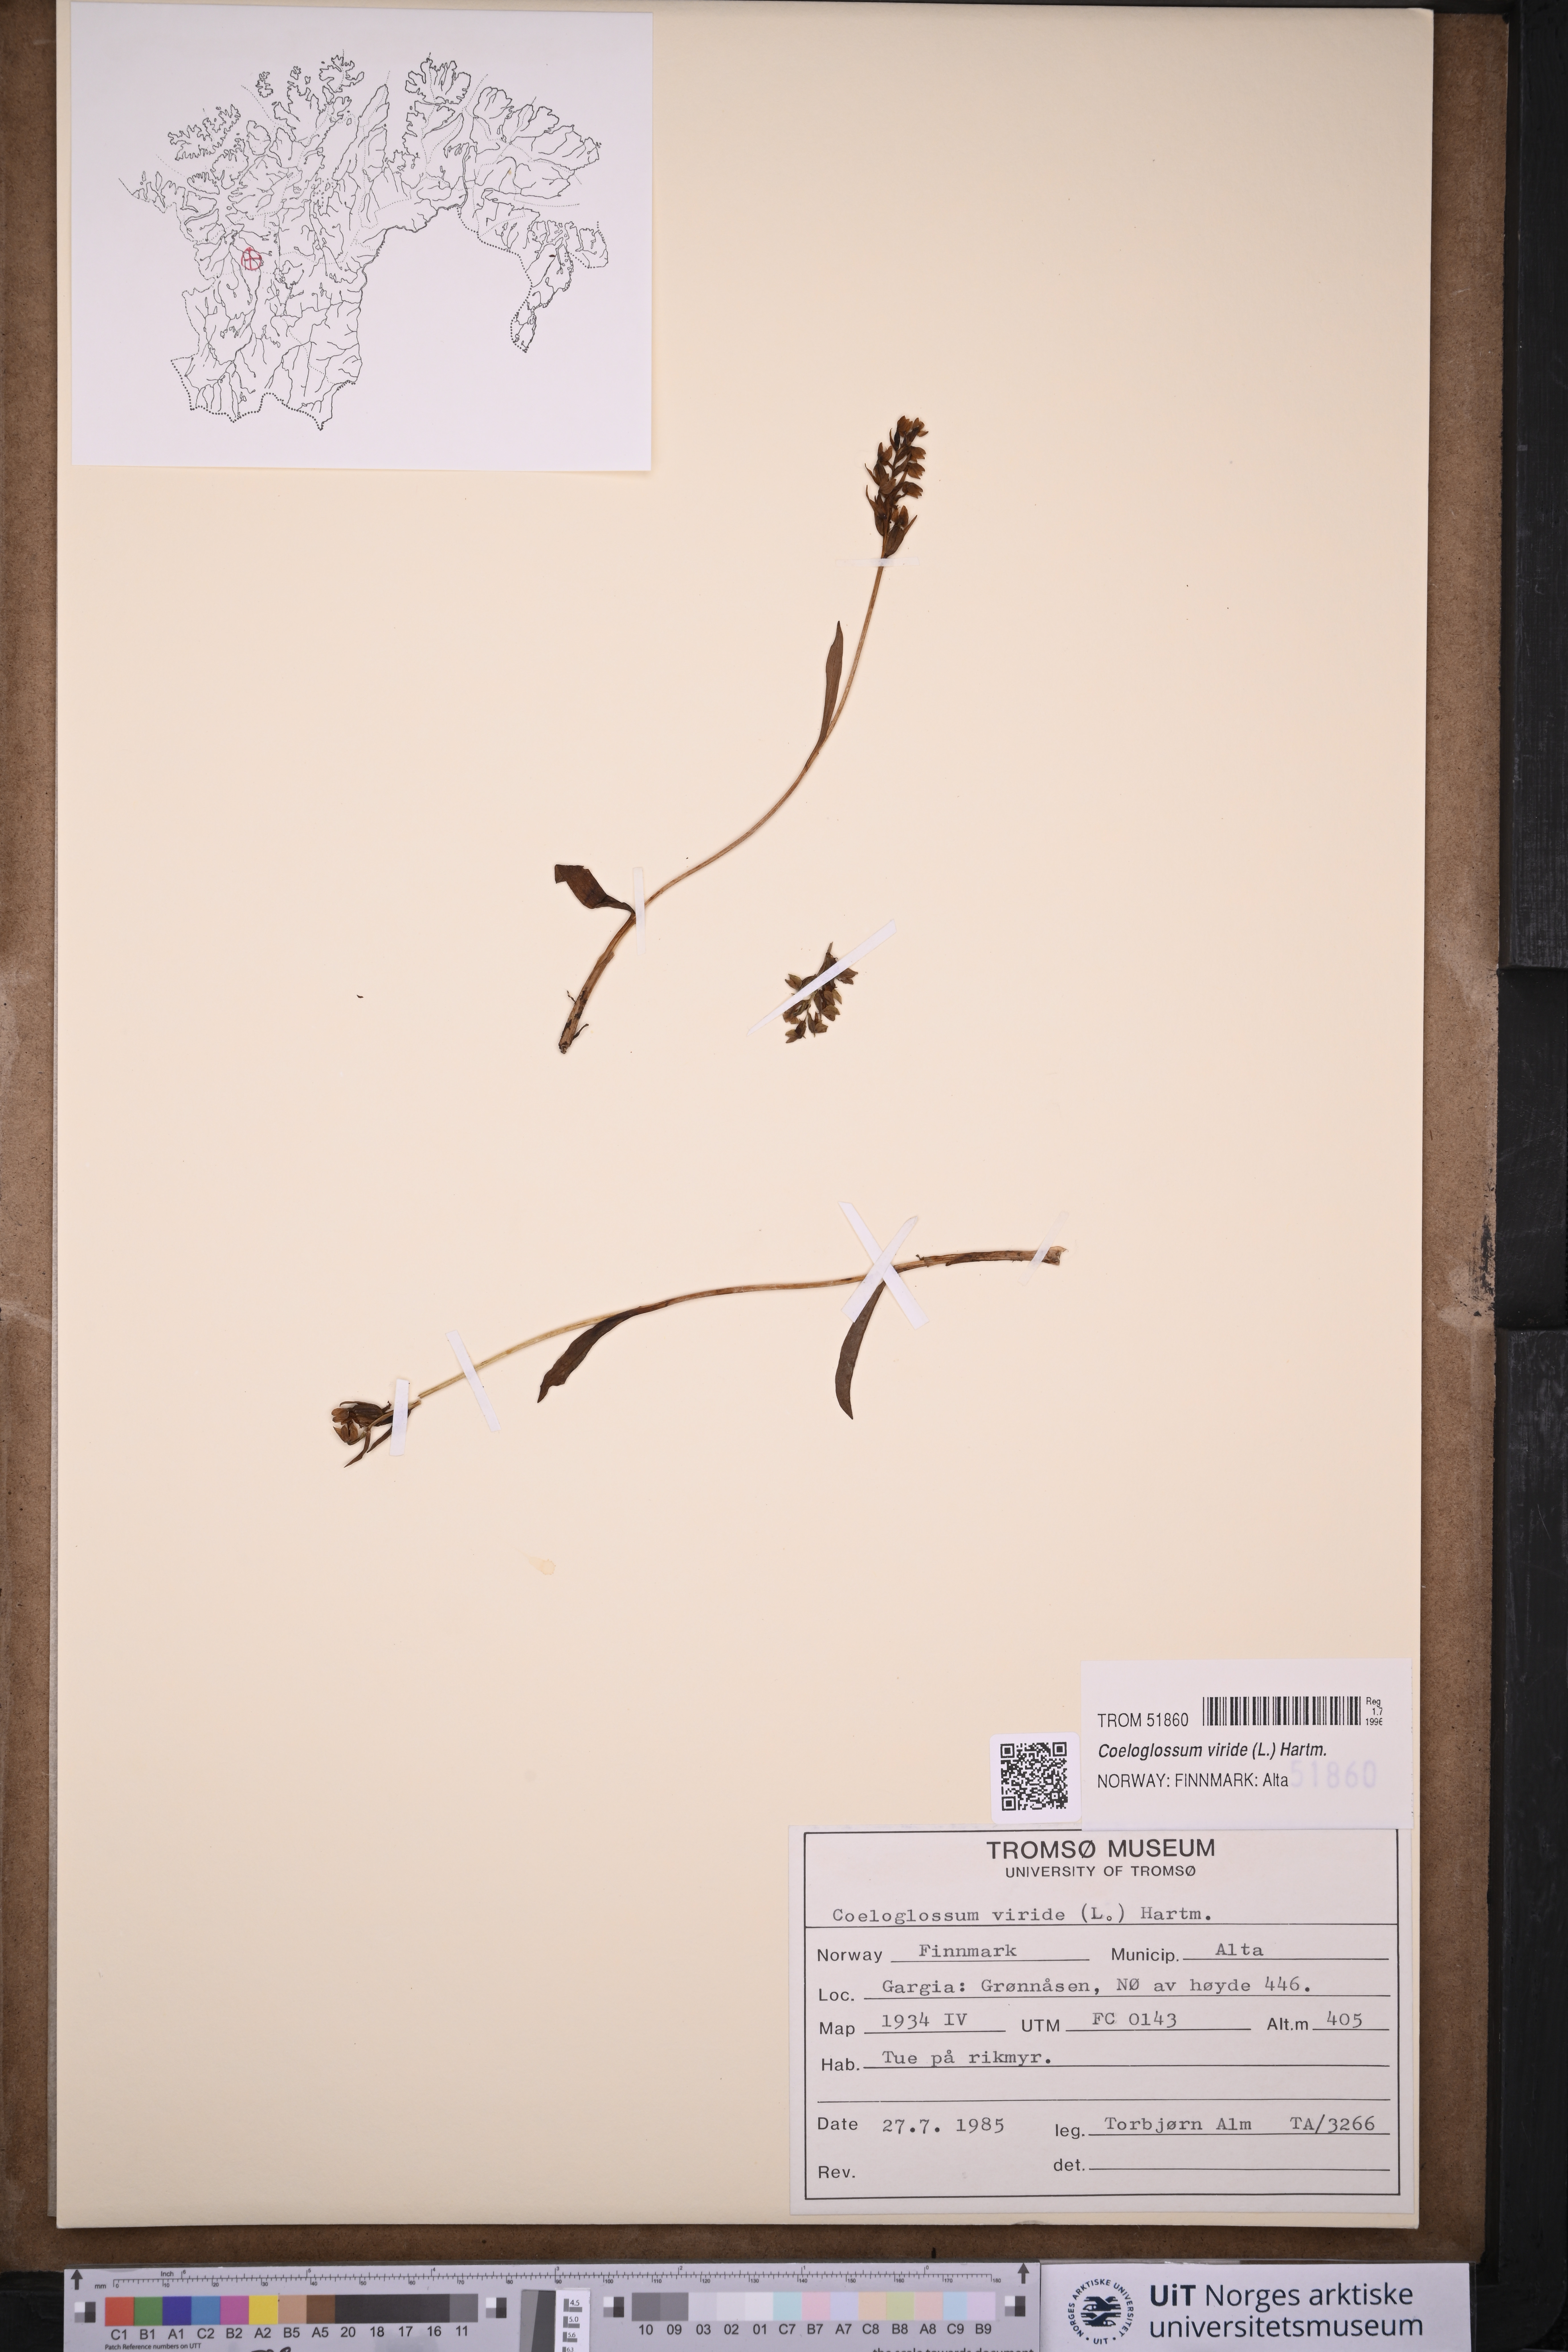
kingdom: Plantae
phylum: Tracheophyta
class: Liliopsida
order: Asparagales
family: Orchidaceae
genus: Dactylorhiza
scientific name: Dactylorhiza viridis
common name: Longbract frog orchid
